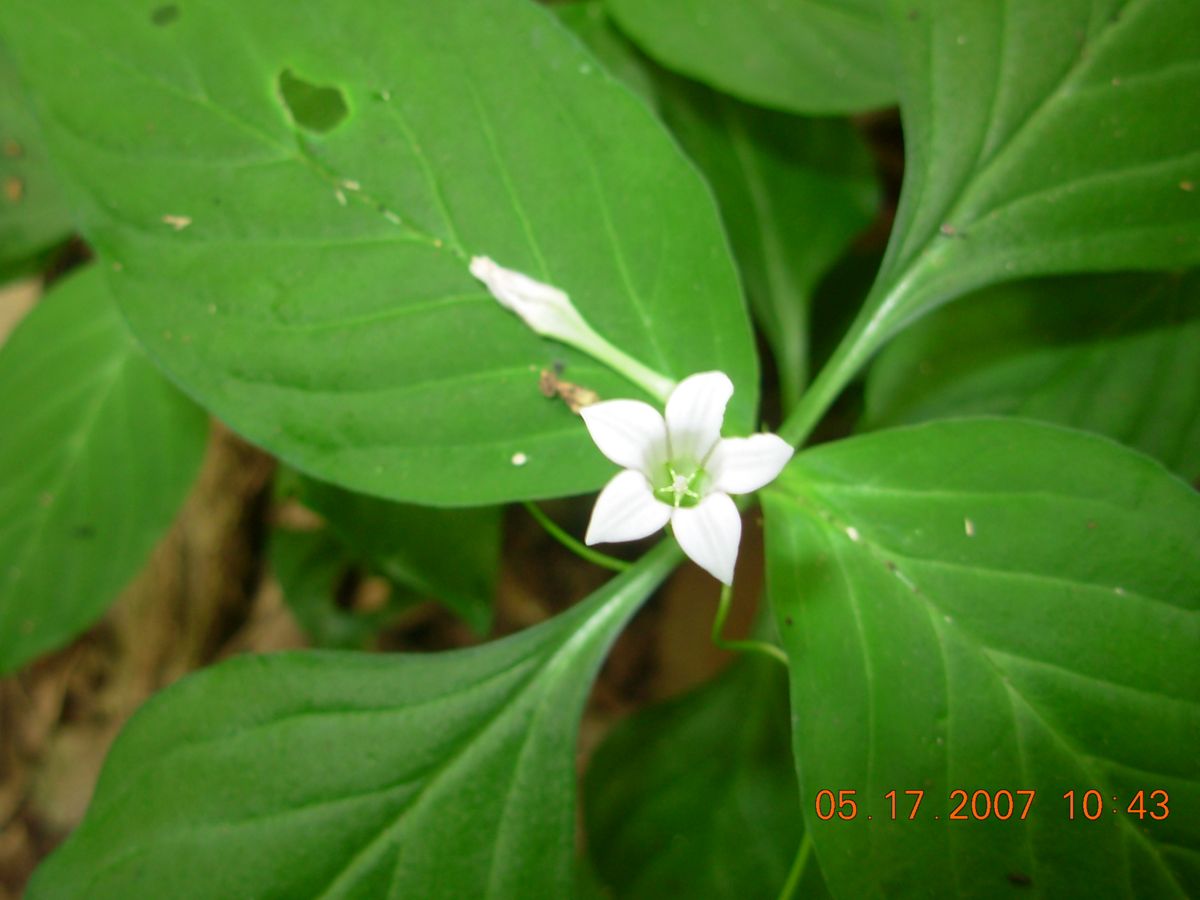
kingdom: Plantae
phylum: Tracheophyta
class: Magnoliopsida
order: Gentianales
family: Loganiaceae
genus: Spigelia
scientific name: Spigelia humboldtiana
